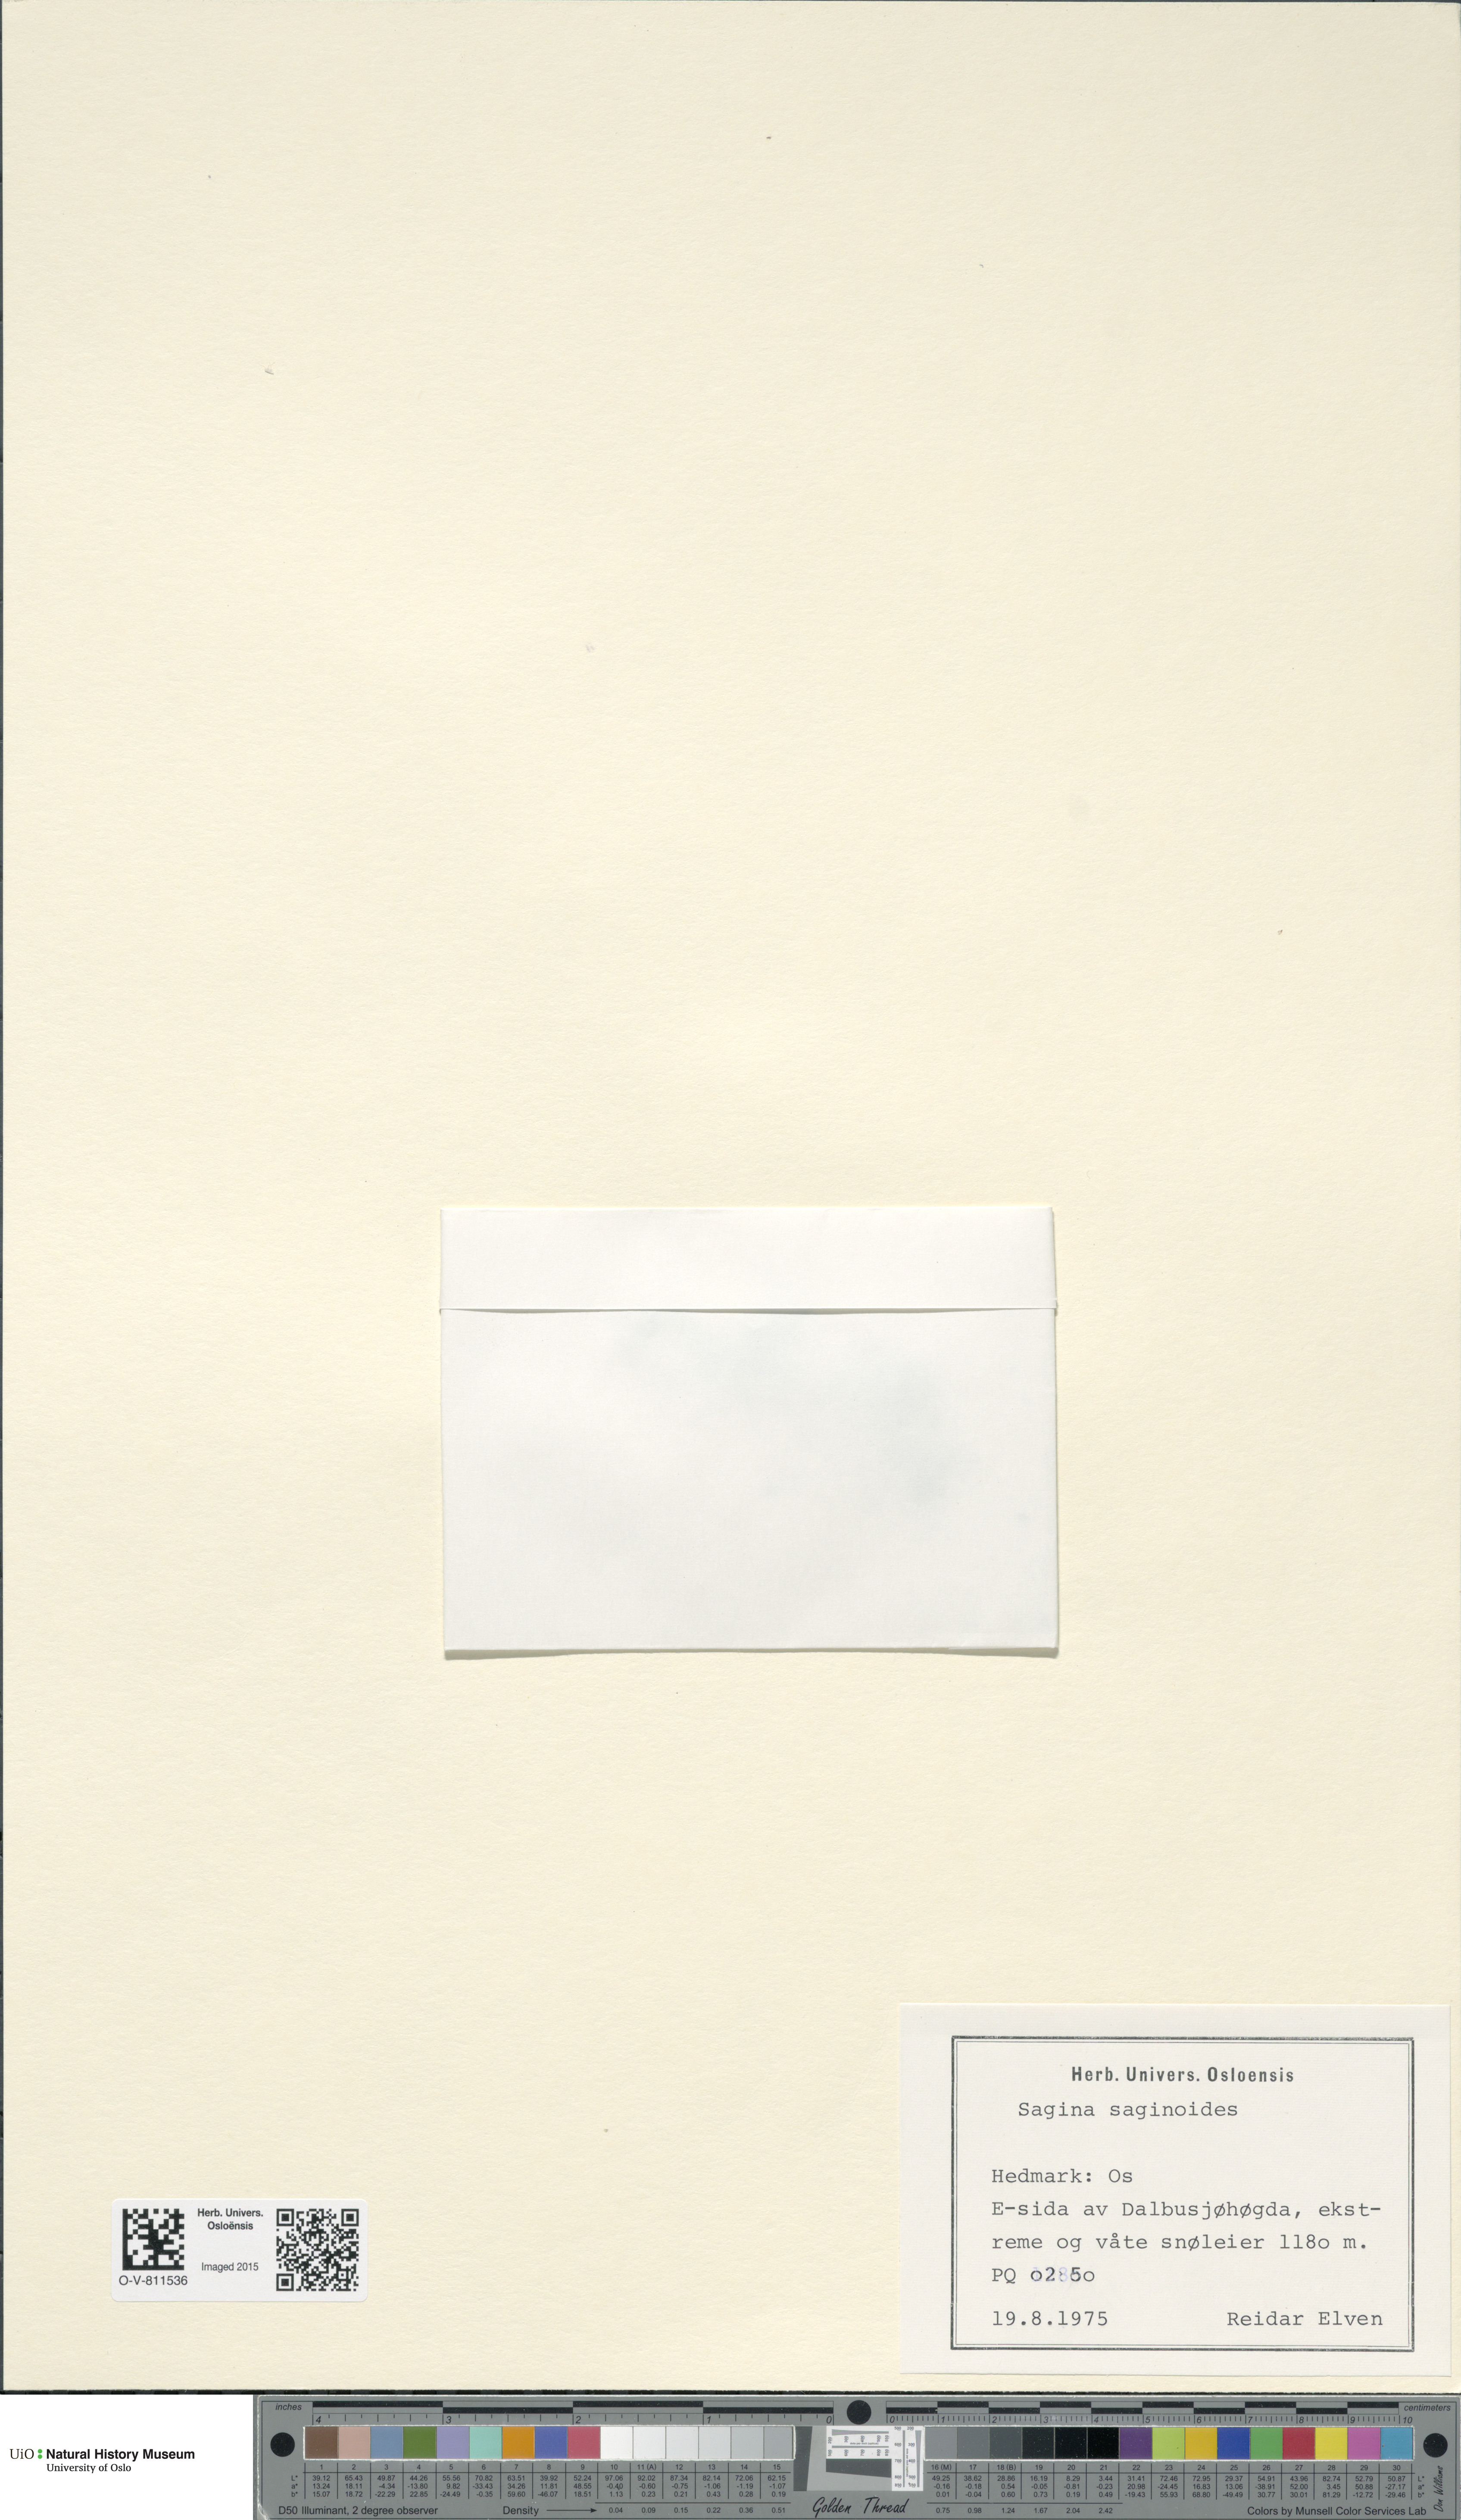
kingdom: Plantae
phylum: Tracheophyta
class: Magnoliopsida
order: Caryophyllales
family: Caryophyllaceae
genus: Sagina
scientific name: Sagina saginoides
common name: Alpine pearlwort
